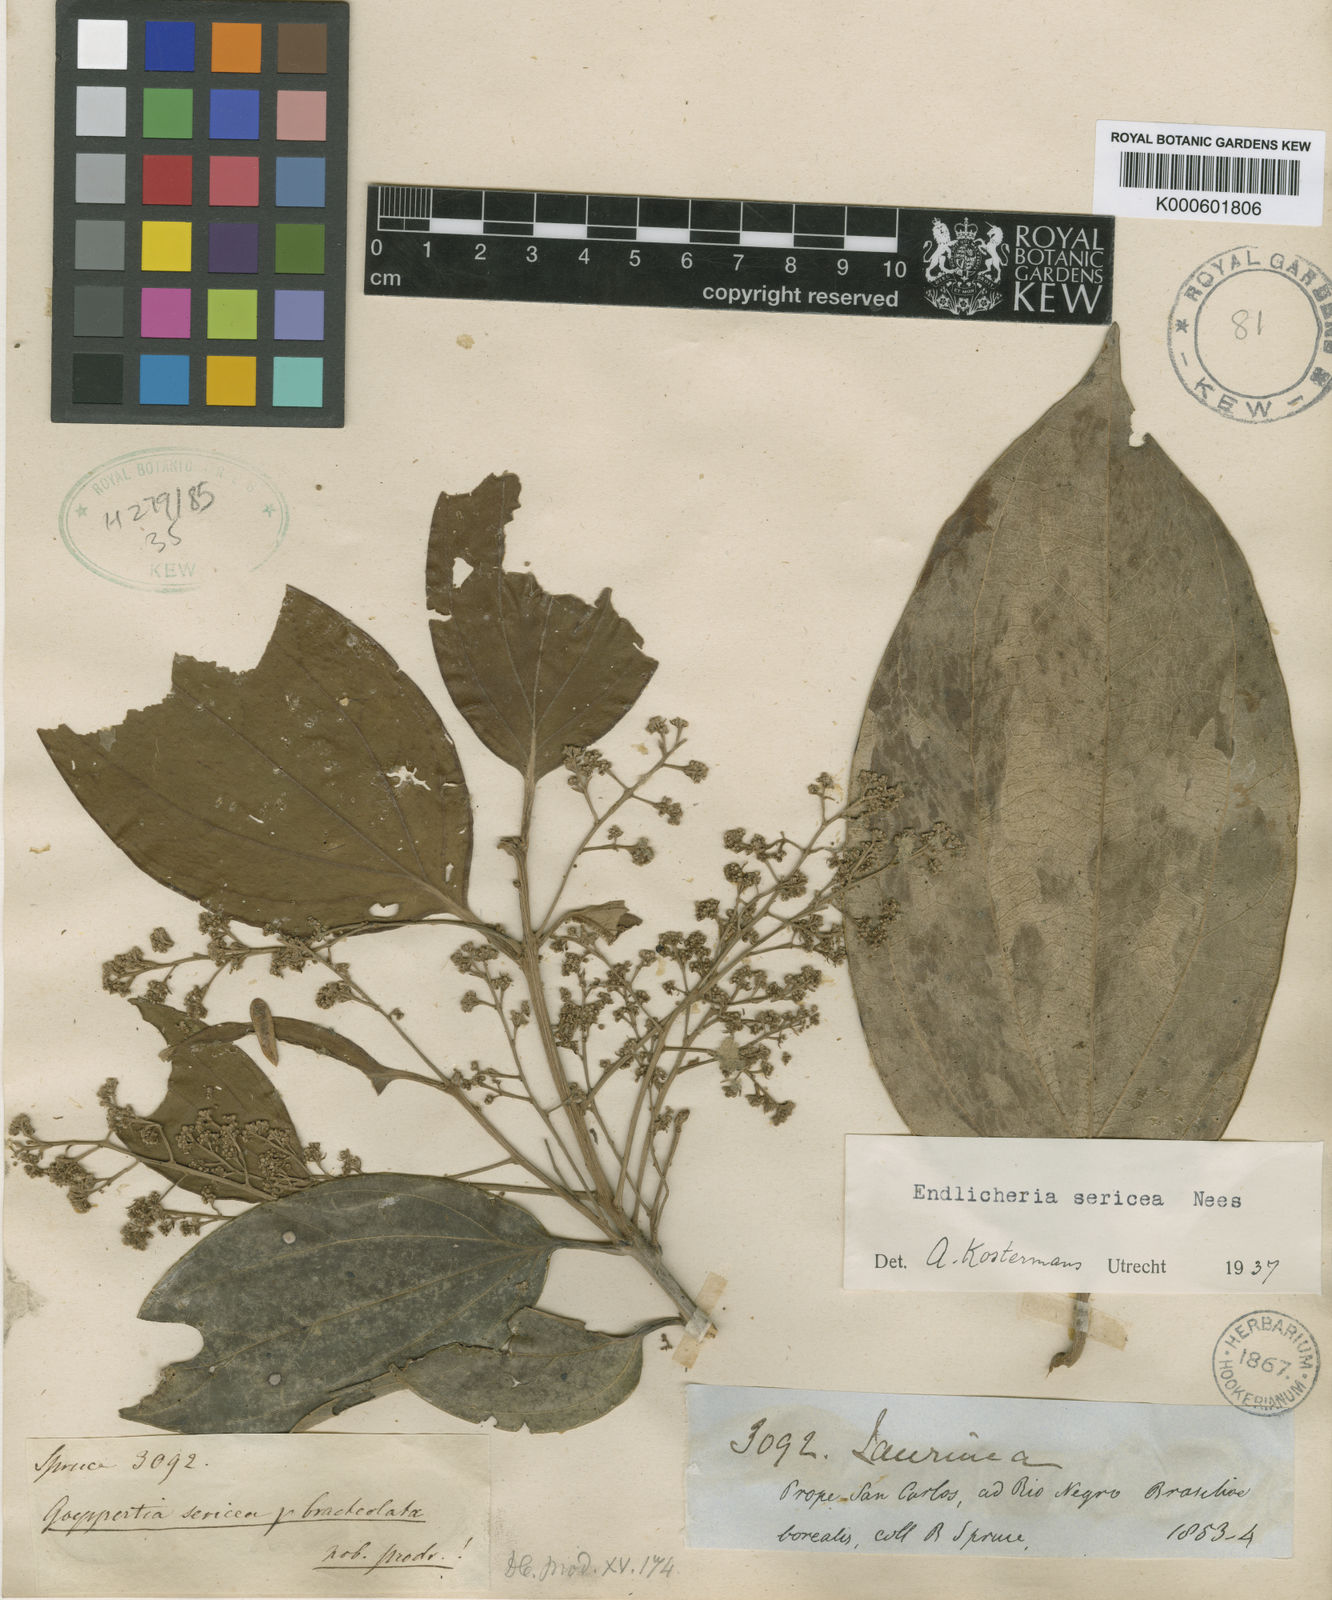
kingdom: Plantae
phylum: Tracheophyta
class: Magnoliopsida
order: Laurales
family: Lauraceae
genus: Endlicheria
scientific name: Endlicheria bracteolata
